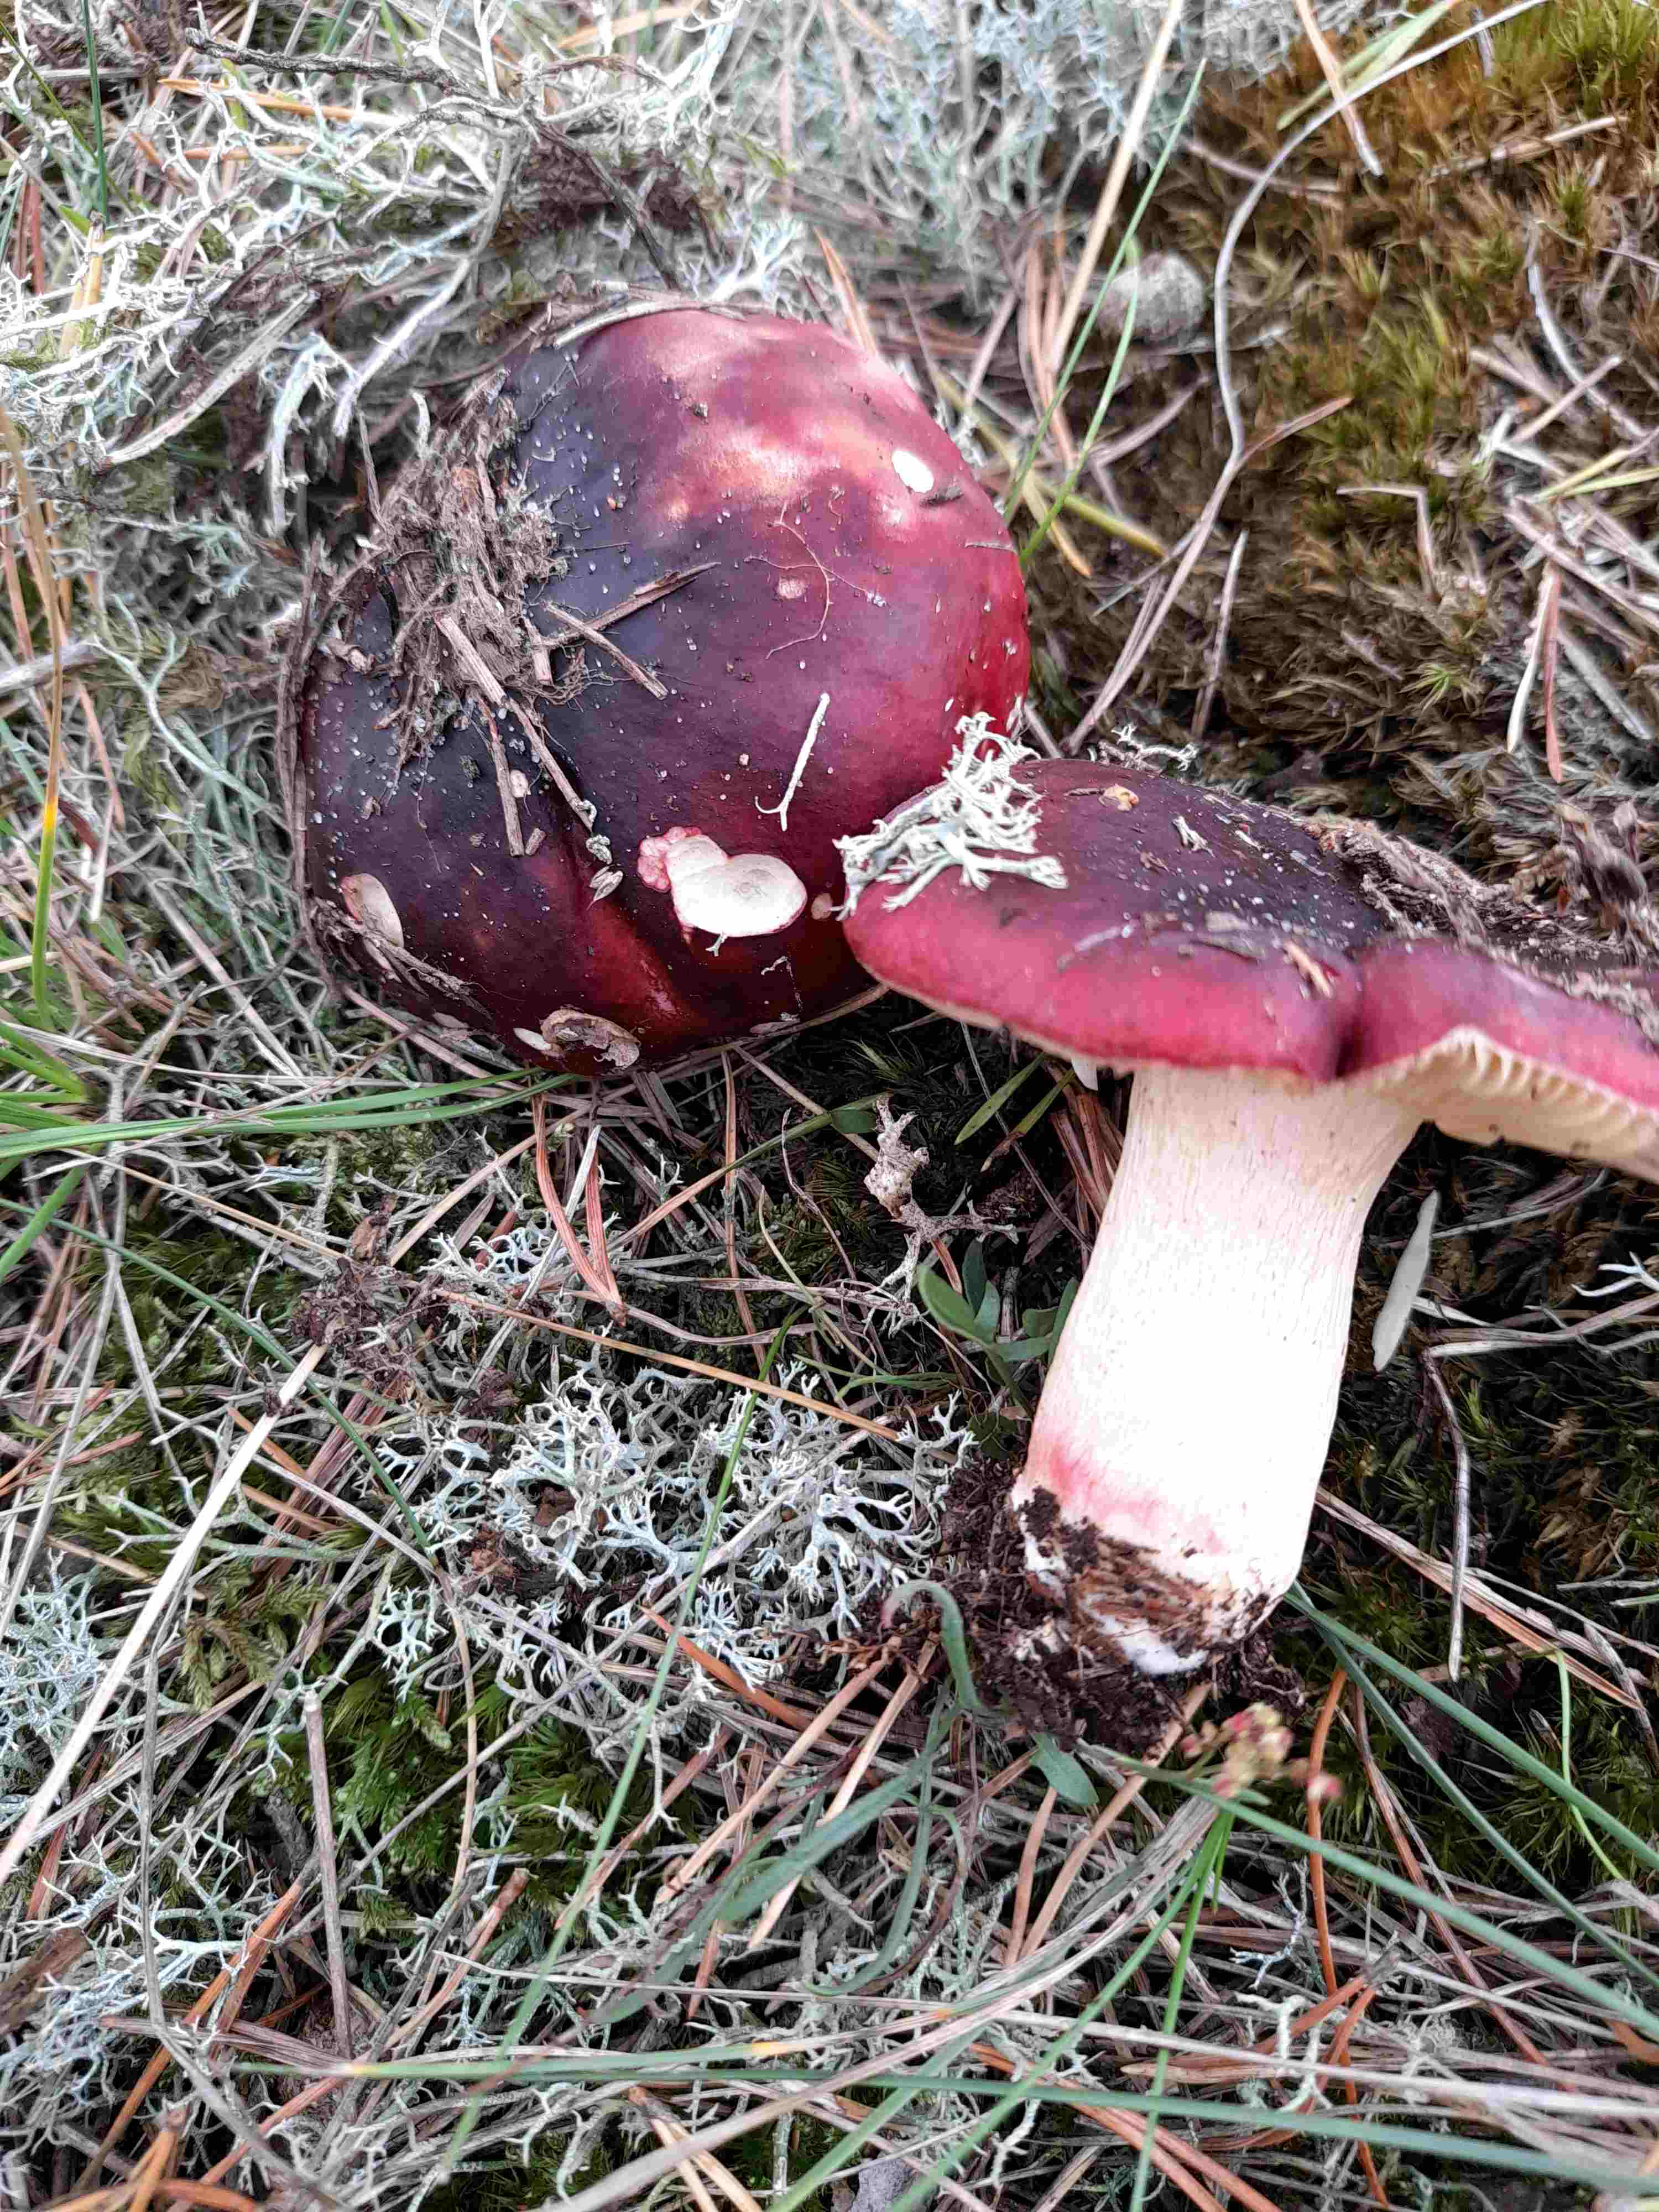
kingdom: Fungi
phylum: Basidiomycota
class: Agaricomycetes
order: Russulales
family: Russulaceae
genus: Russula
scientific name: Russula xerampelina
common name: hummer-skørhat
